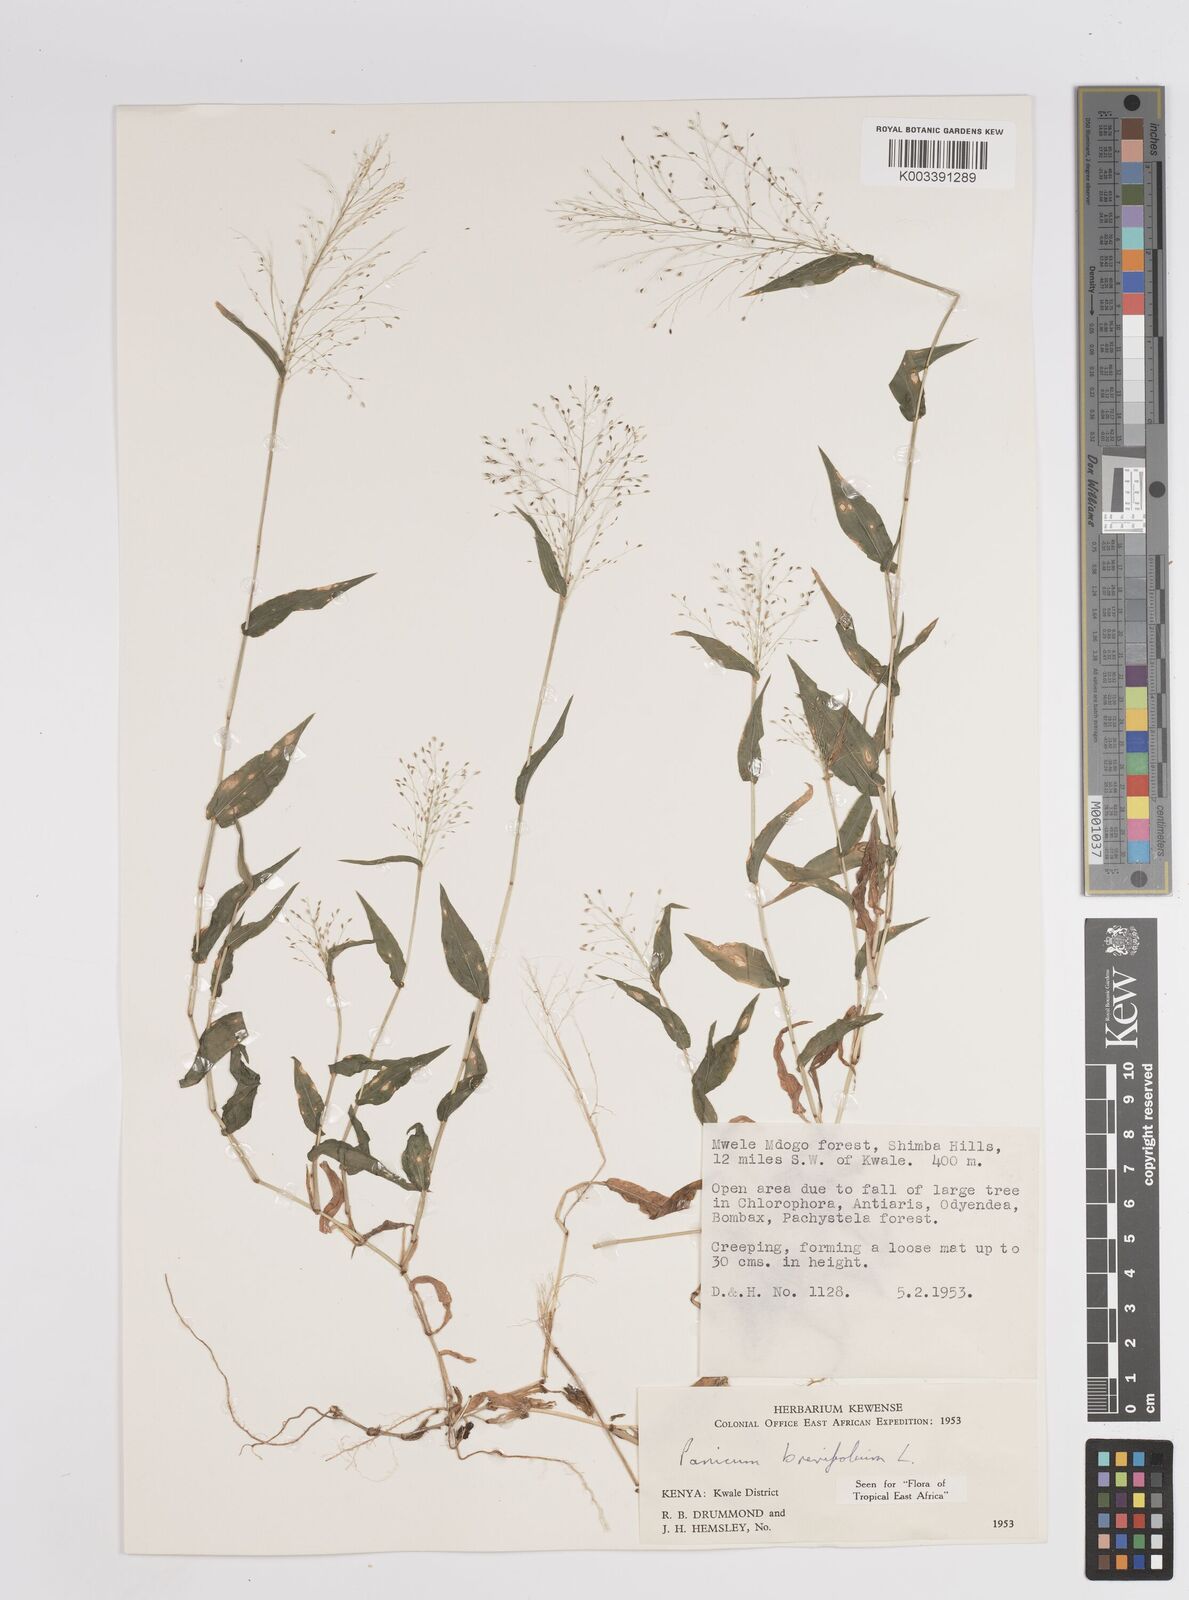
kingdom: Plantae
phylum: Tracheophyta
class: Liliopsida
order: Poales
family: Poaceae
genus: Panicum
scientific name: Panicum brevifolium
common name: Shortleaf panic grass
